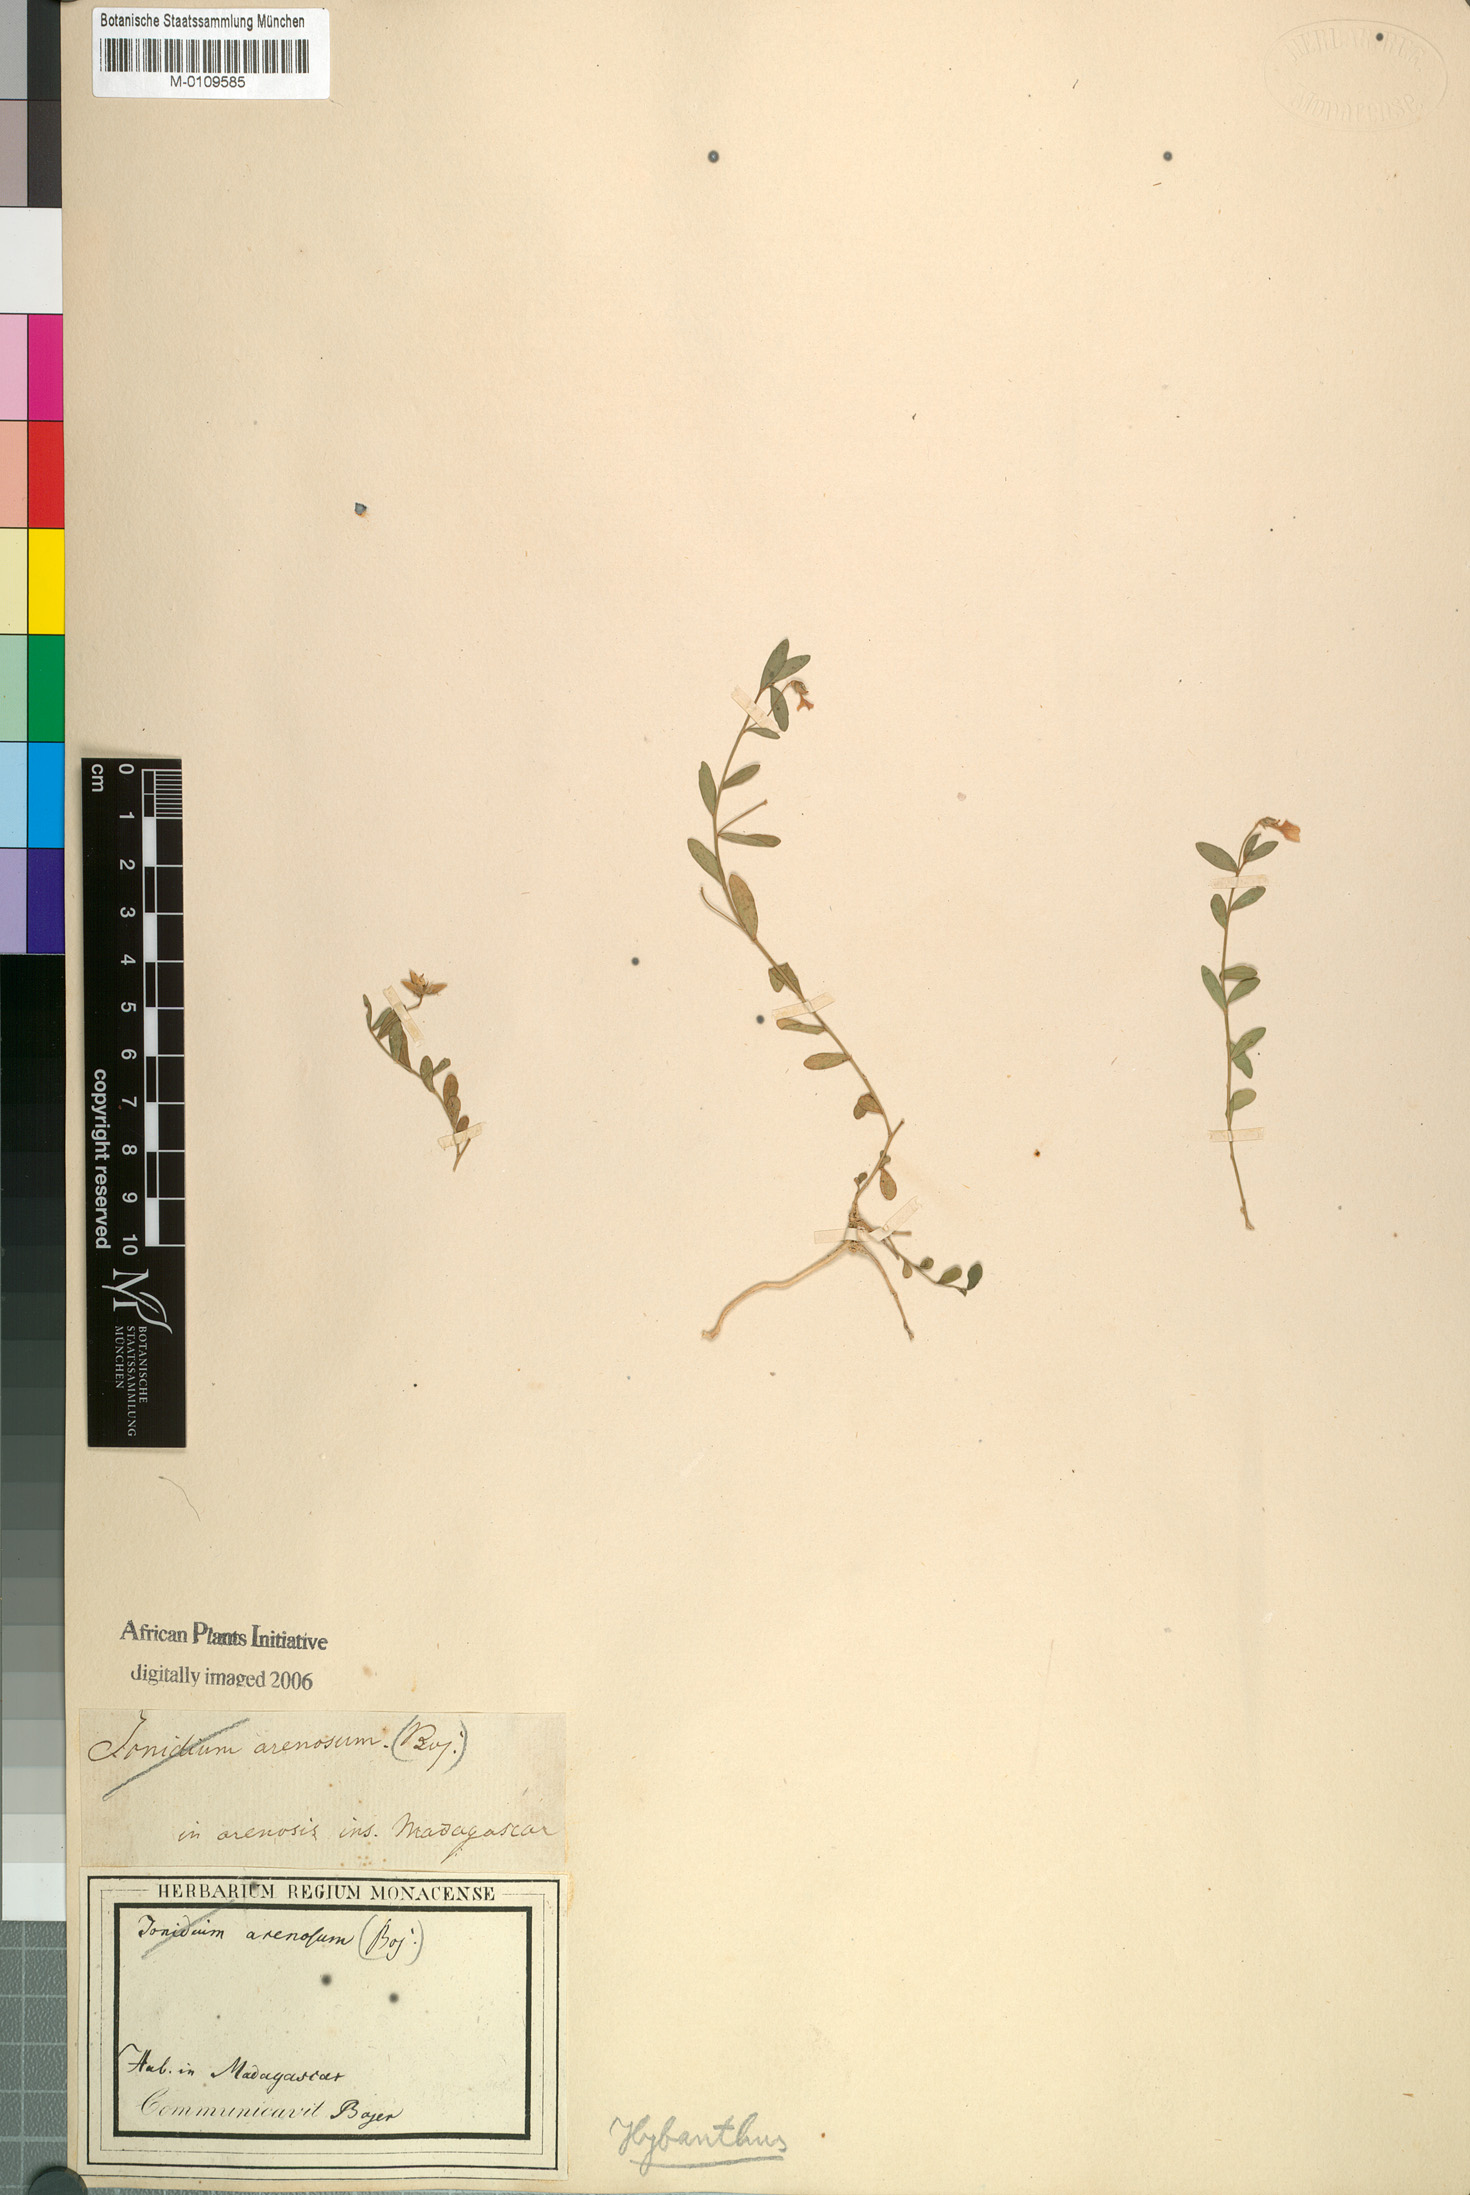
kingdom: Plantae
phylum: Tracheophyta
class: Magnoliopsida
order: Malpighiales
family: Violaceae
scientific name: Violaceae
